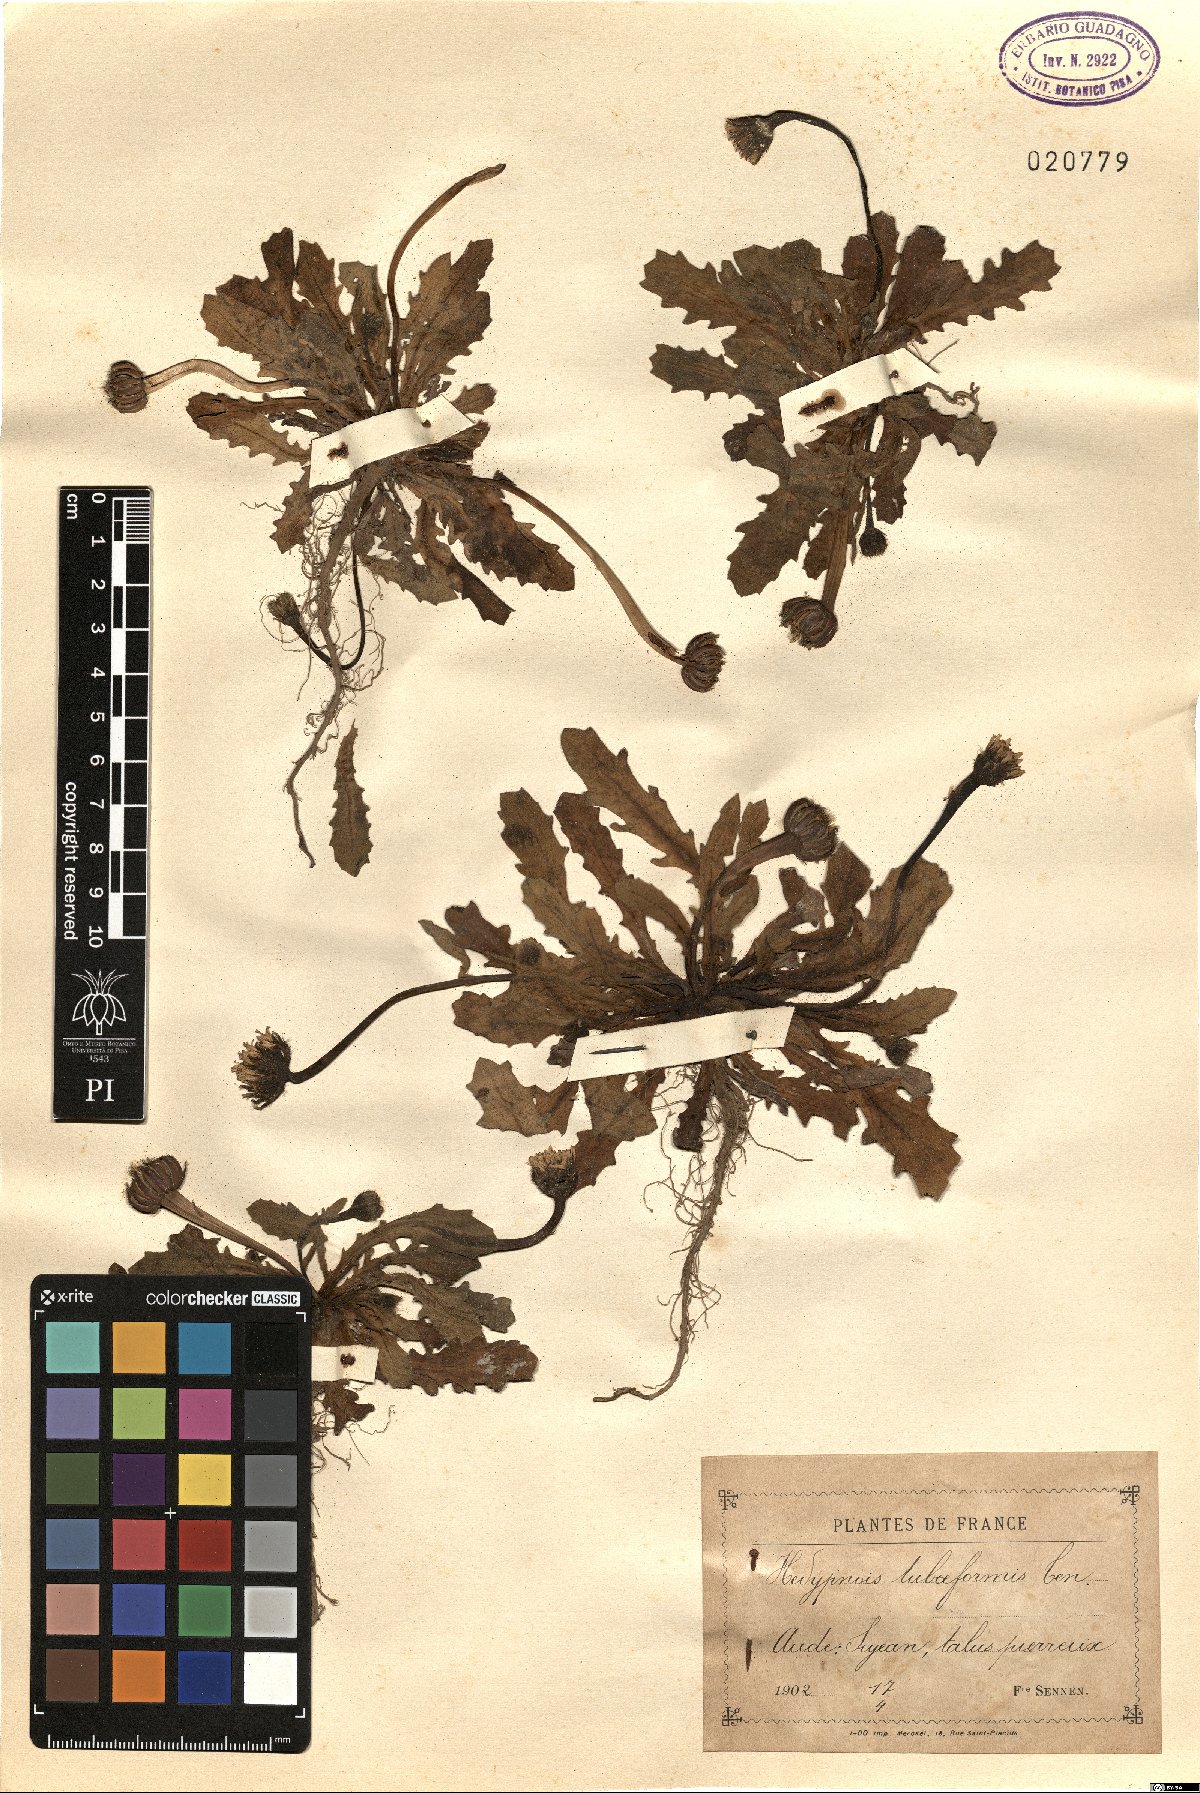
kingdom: Plantae
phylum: Tracheophyta
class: Magnoliopsida
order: Asterales
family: Asteraceae
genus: Hedypnois
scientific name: Hedypnois rhagadioloides
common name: Cretan weed
